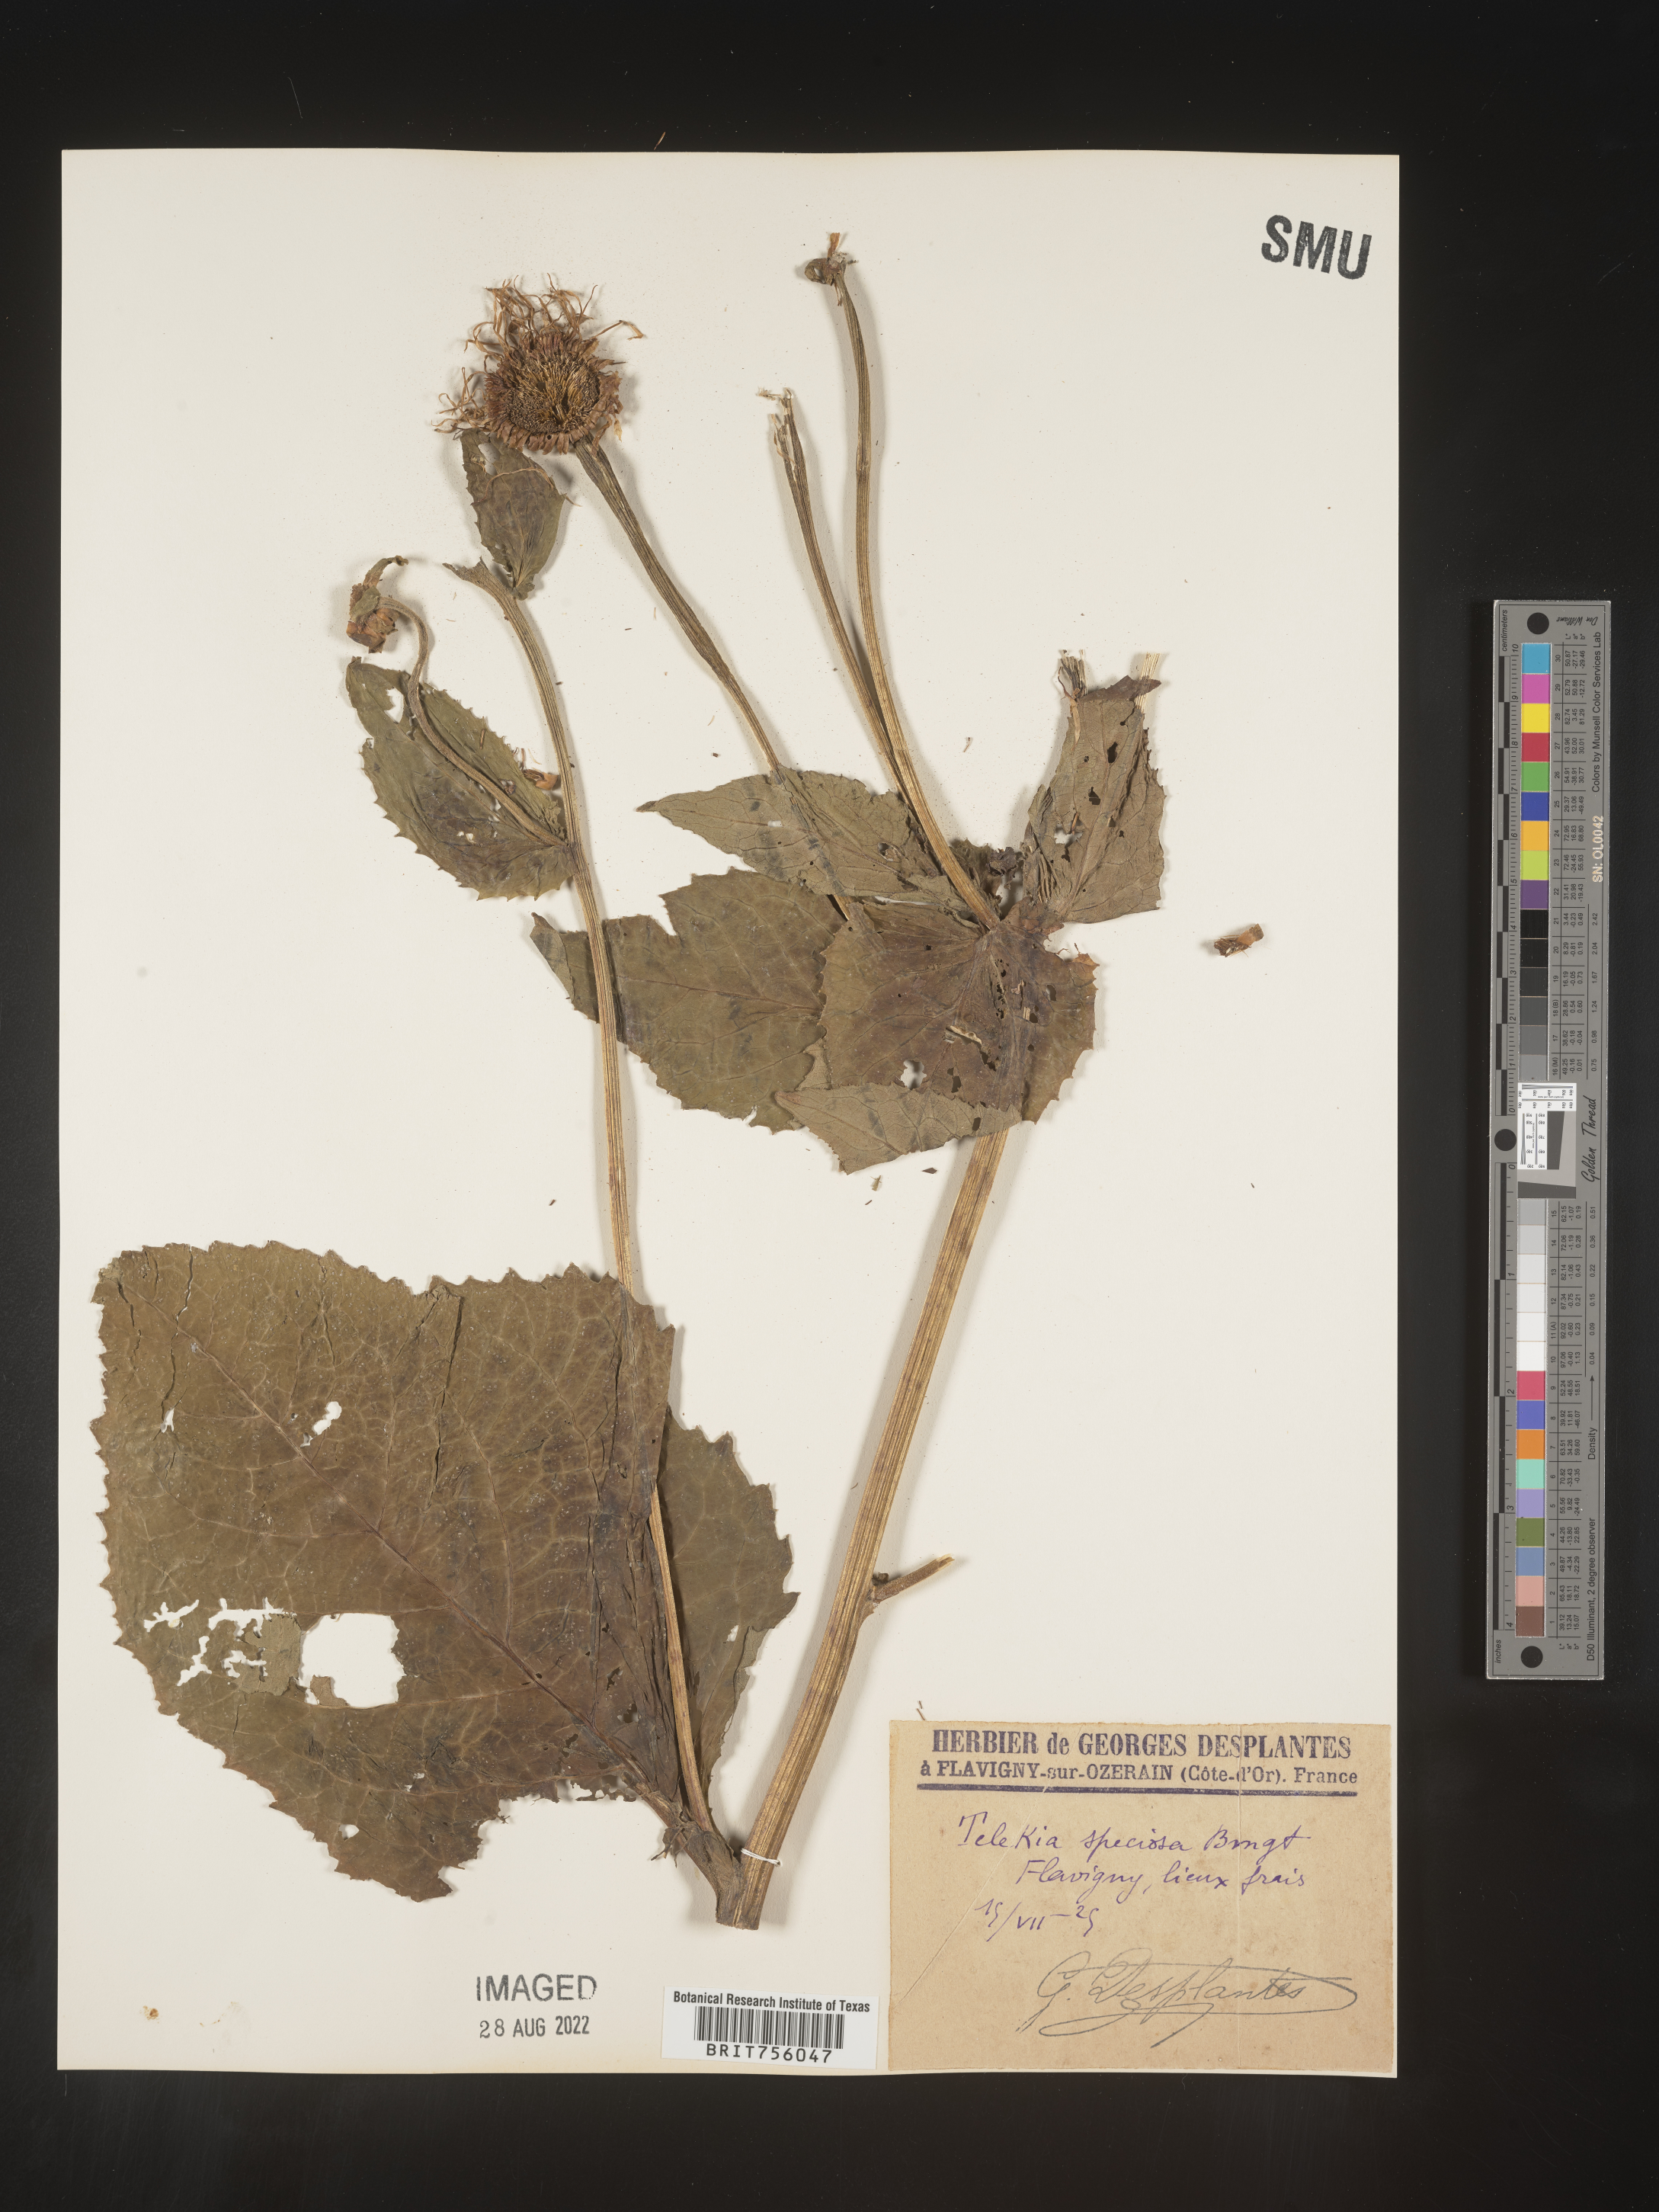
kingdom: Plantae
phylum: Tracheophyta
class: Magnoliopsida
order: Asterales
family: Asteraceae
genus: Telekia
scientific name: Telekia
